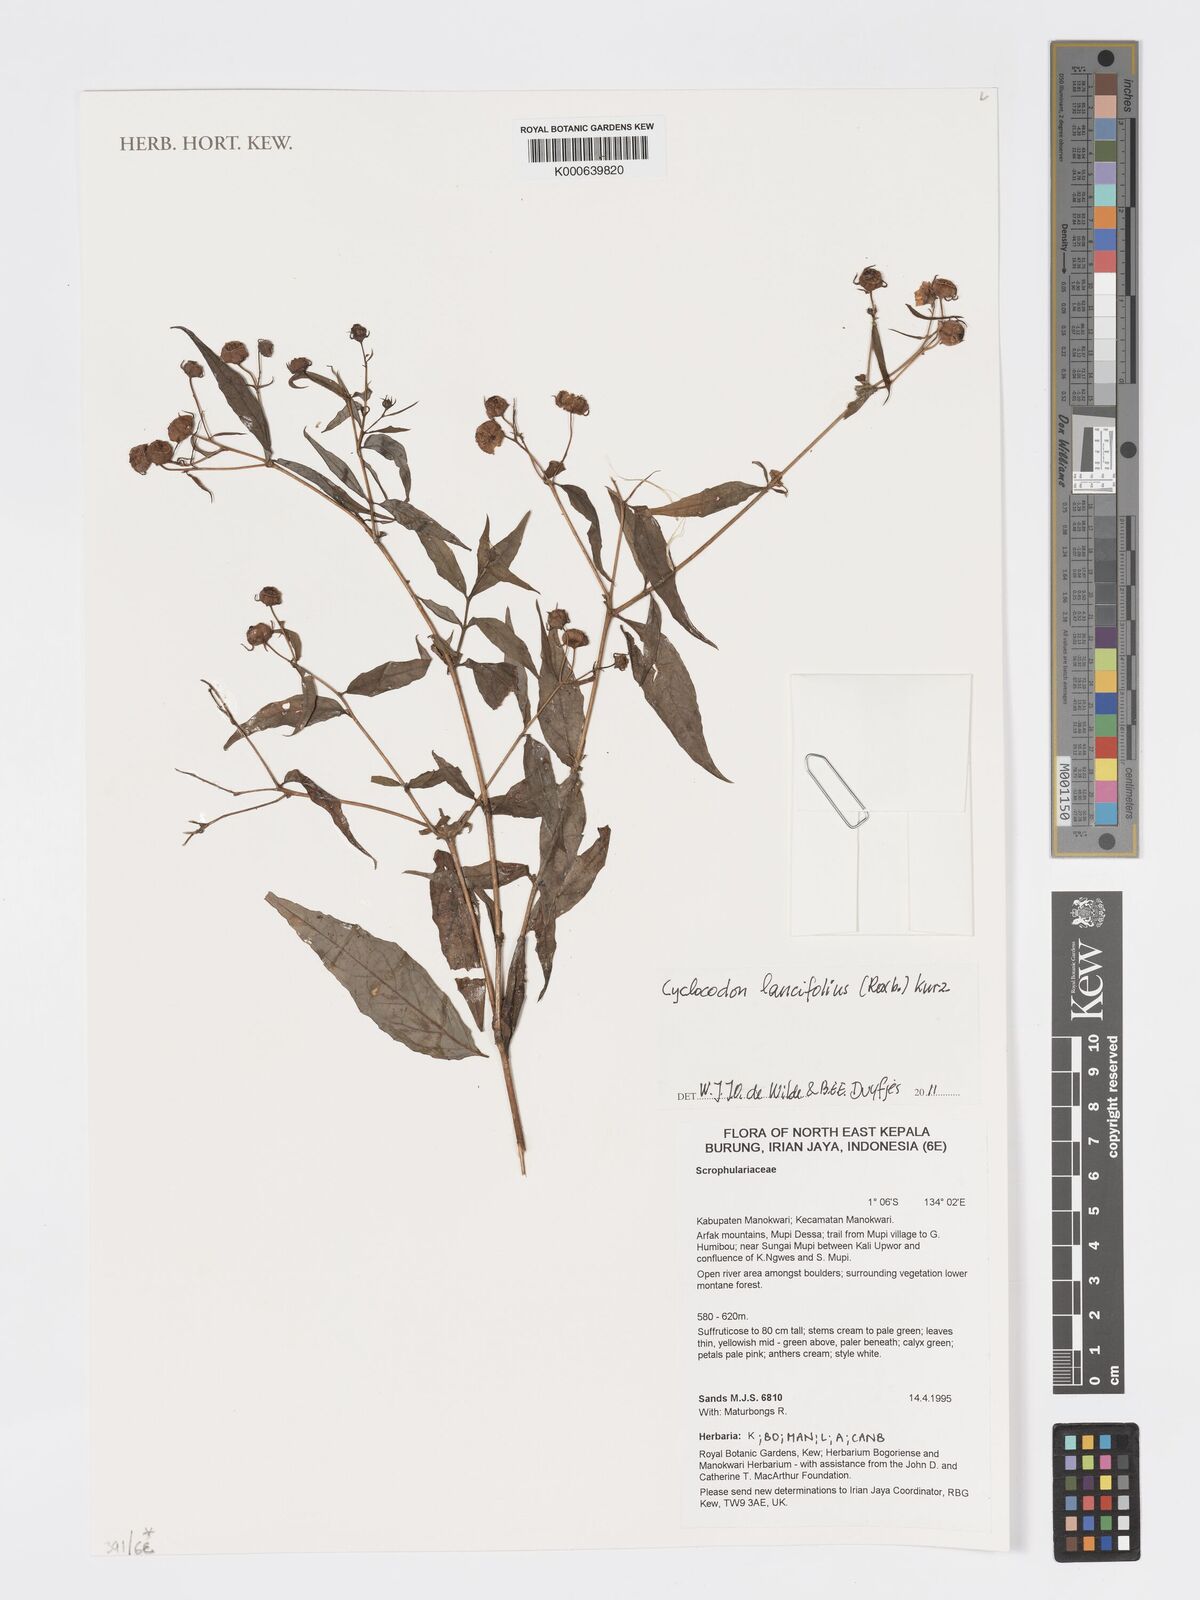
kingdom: Plantae
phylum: Tracheophyta
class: Magnoliopsida
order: Asterales
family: Campanulaceae
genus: Cyclocodon
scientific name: Cyclocodon lancifolius
